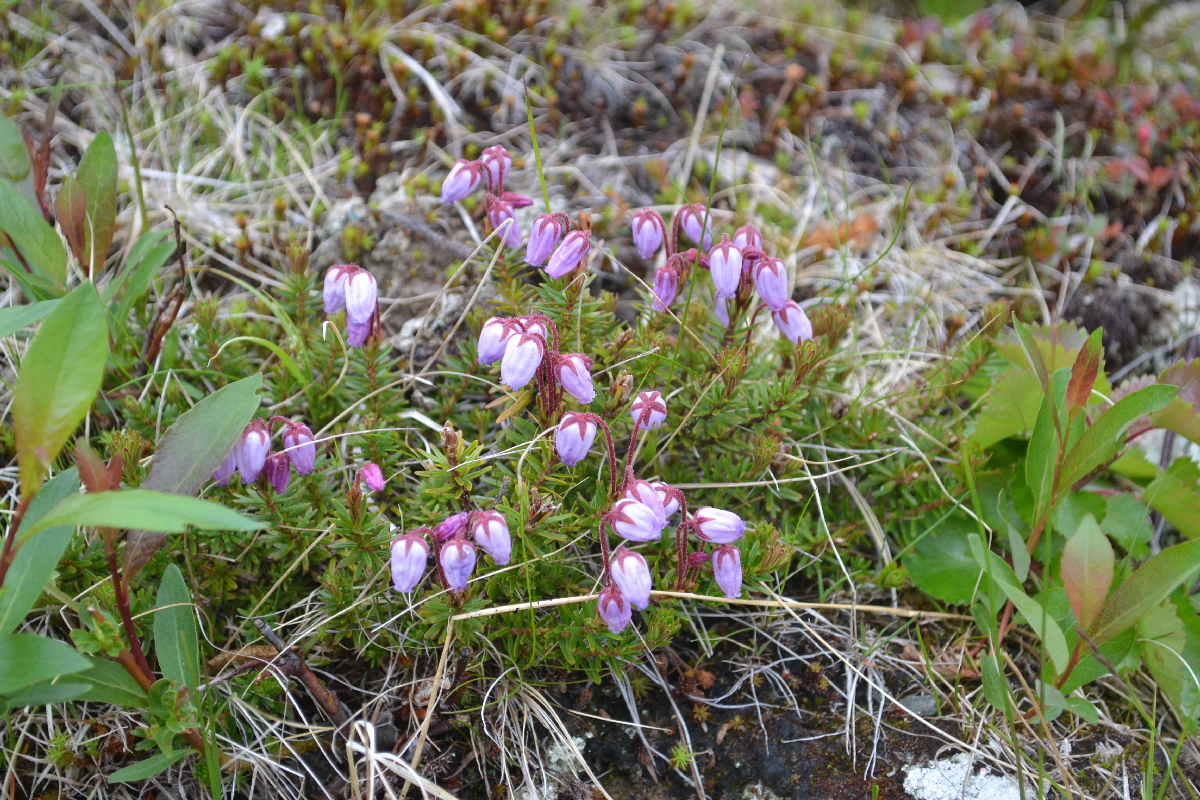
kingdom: Plantae
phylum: Tracheophyta
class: Magnoliopsida
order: Ericales
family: Ericaceae
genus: Phyllodoce
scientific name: Phyllodoce caerulea
